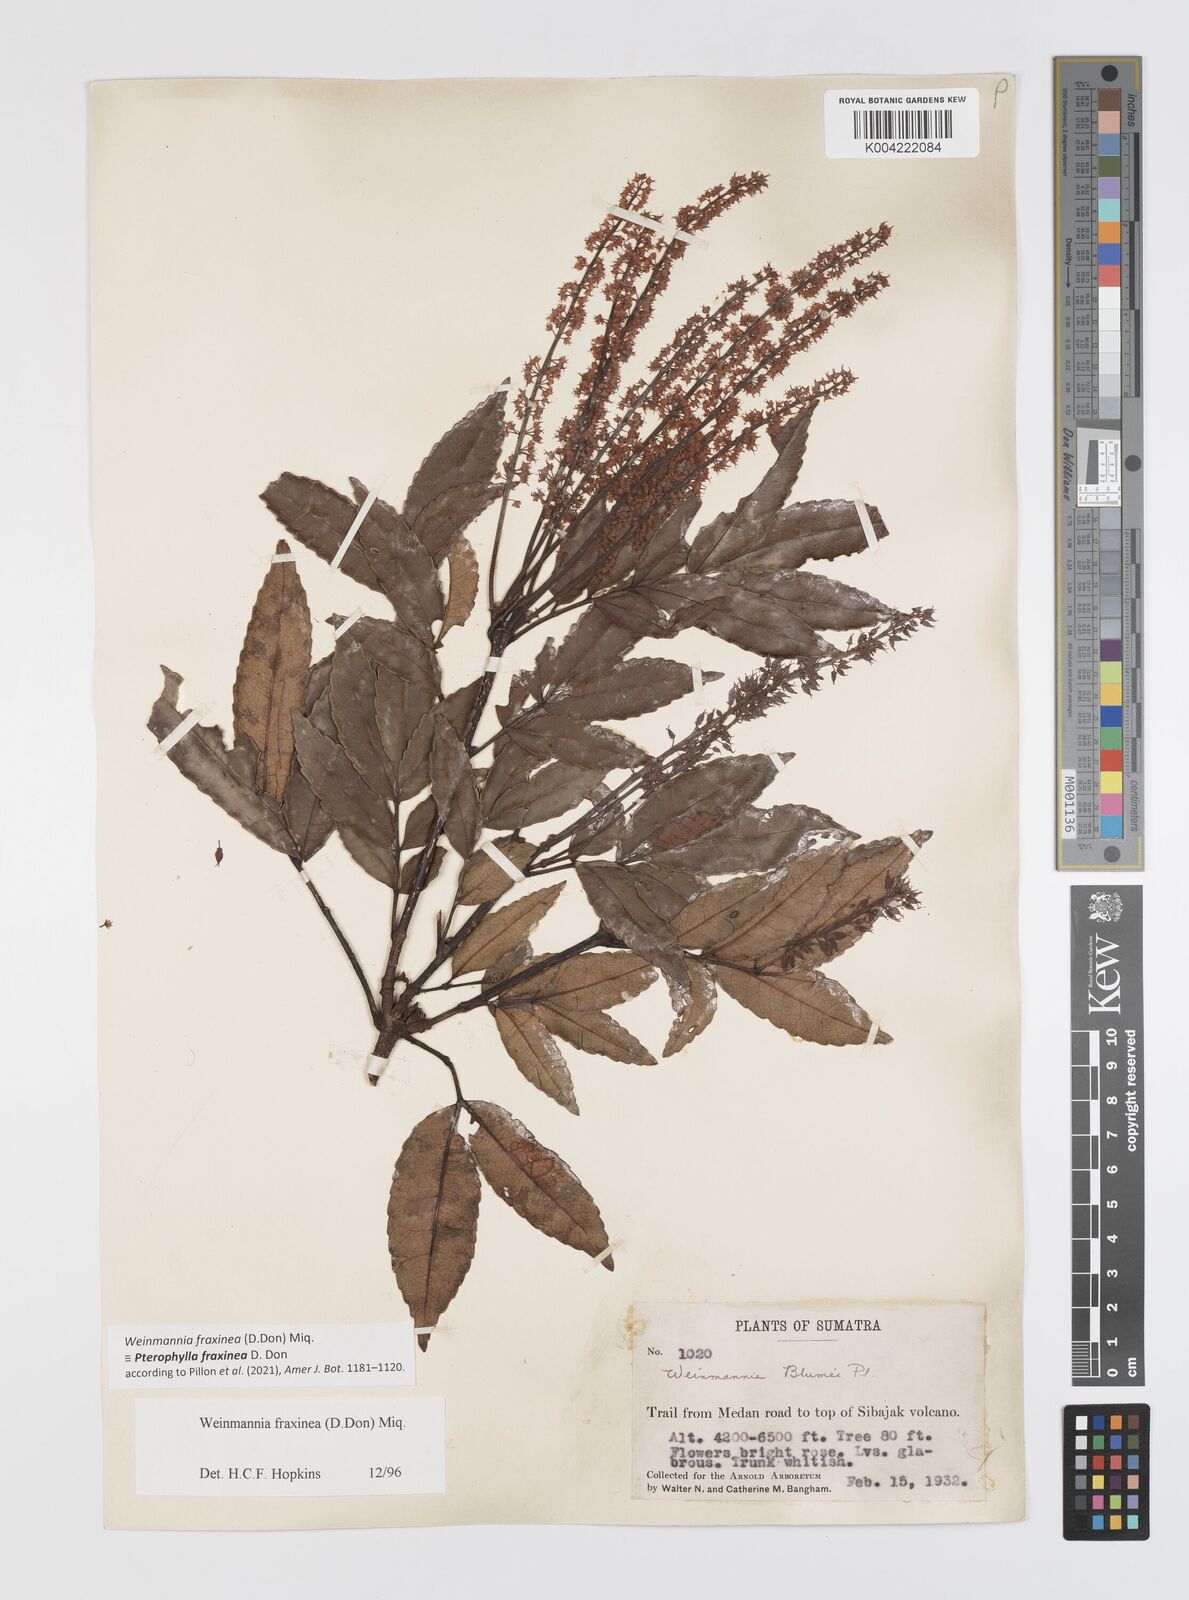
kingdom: Plantae
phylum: Tracheophyta
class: Magnoliopsida
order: Oxalidales
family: Cunoniaceae
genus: Pterophylla
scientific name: Pterophylla fraxinea
